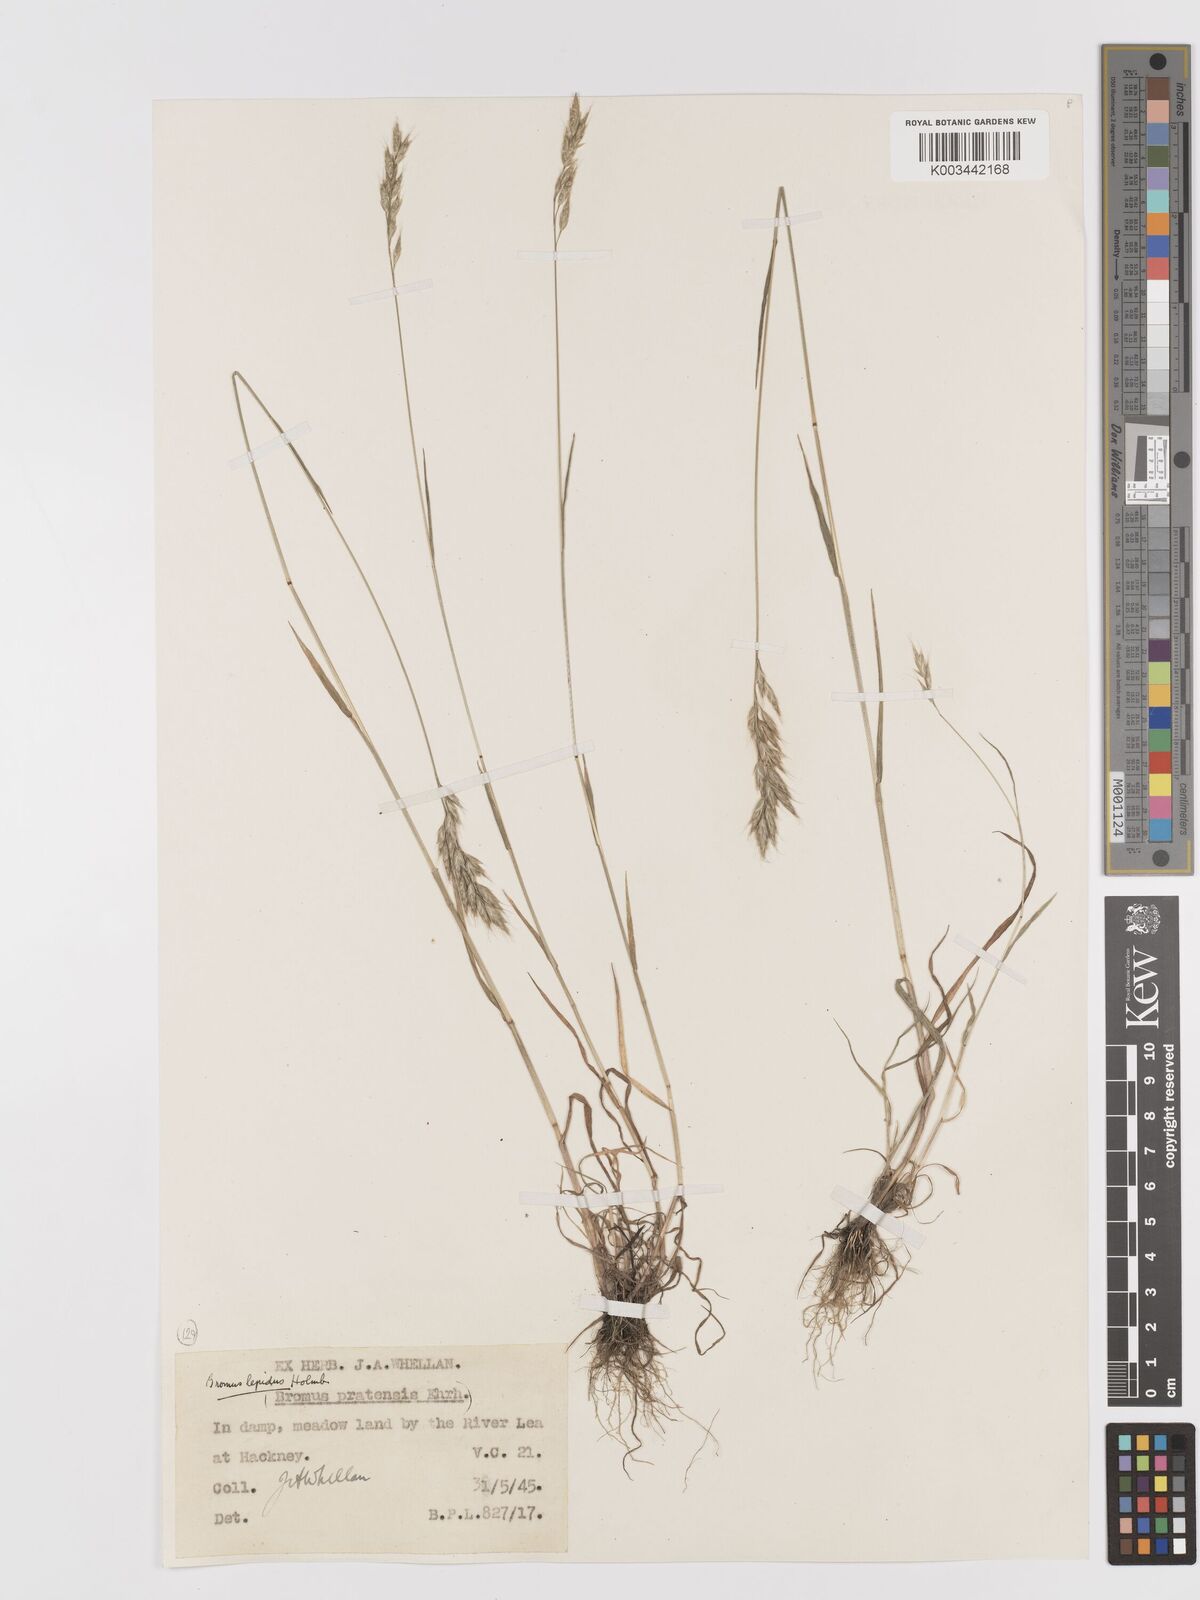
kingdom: Plantae
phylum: Tracheophyta
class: Liliopsida
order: Poales
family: Poaceae
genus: Bromus
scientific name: Bromus lepidus
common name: Slender soft-brome
